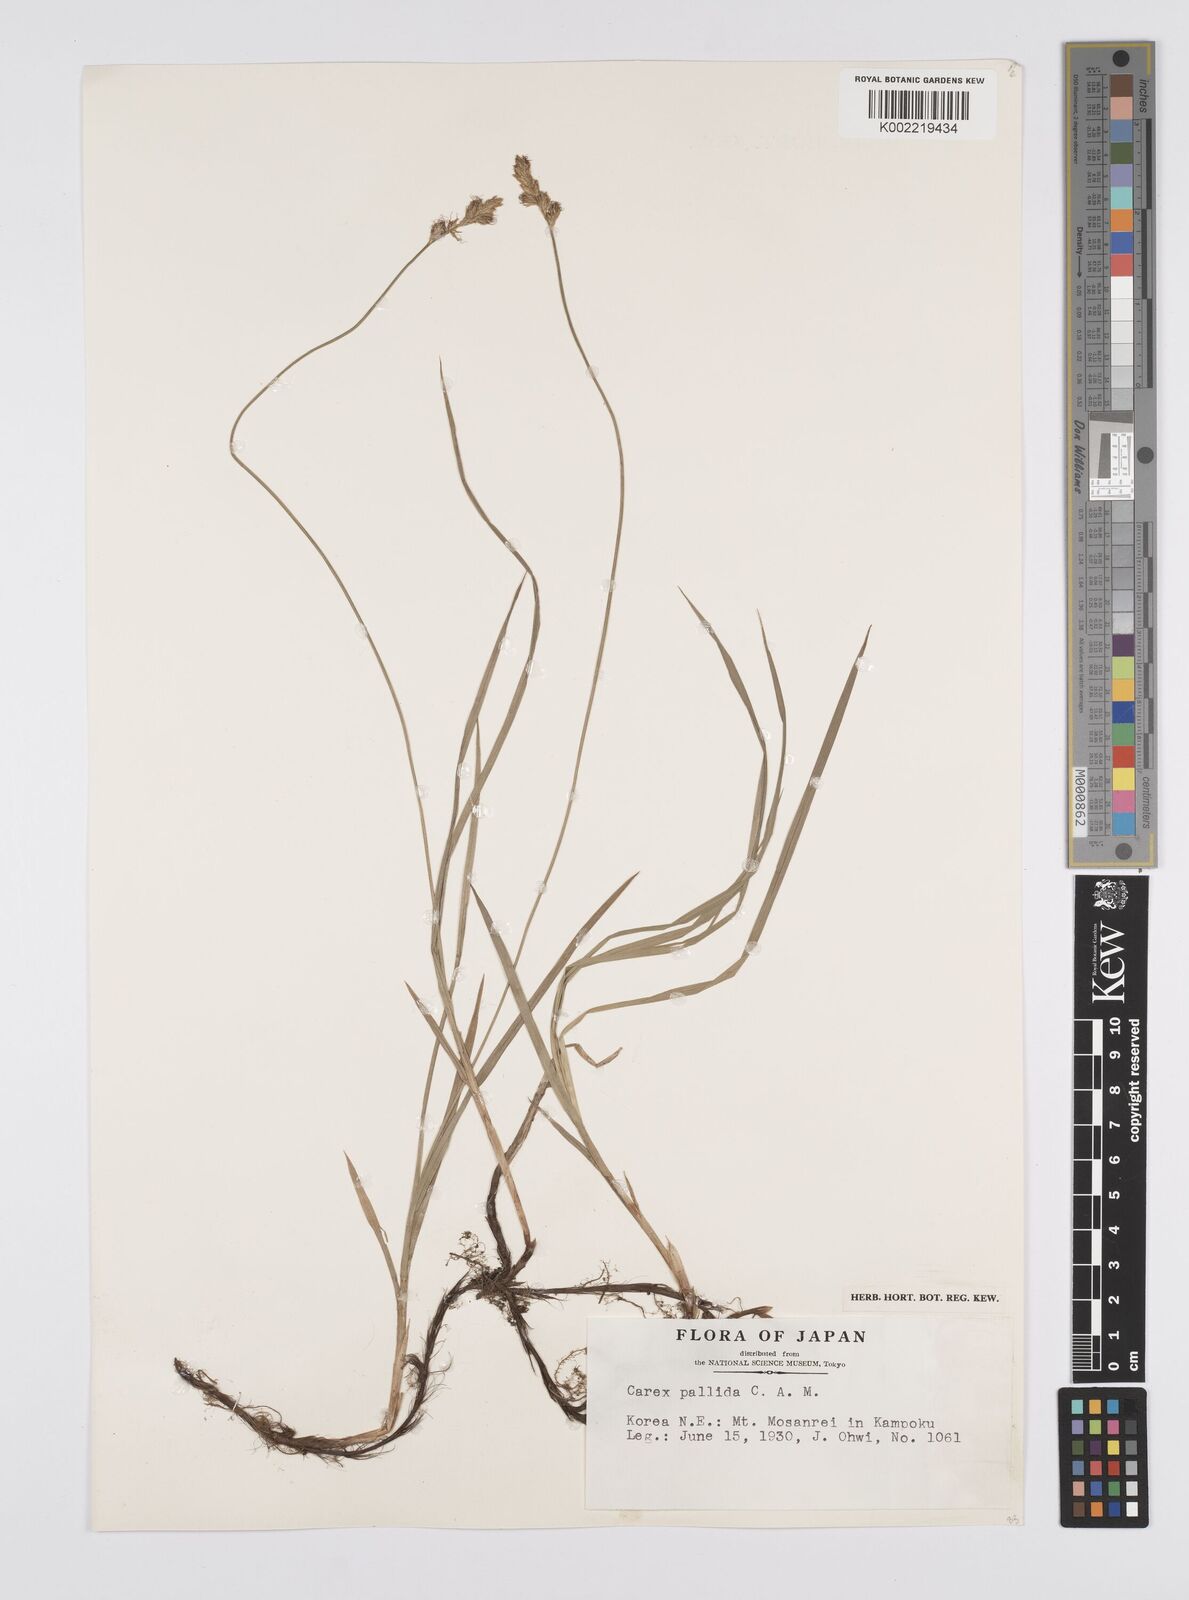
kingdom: Plantae
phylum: Tracheophyta
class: Liliopsida
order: Poales
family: Cyperaceae
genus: Carex
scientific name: Carex accrescens
